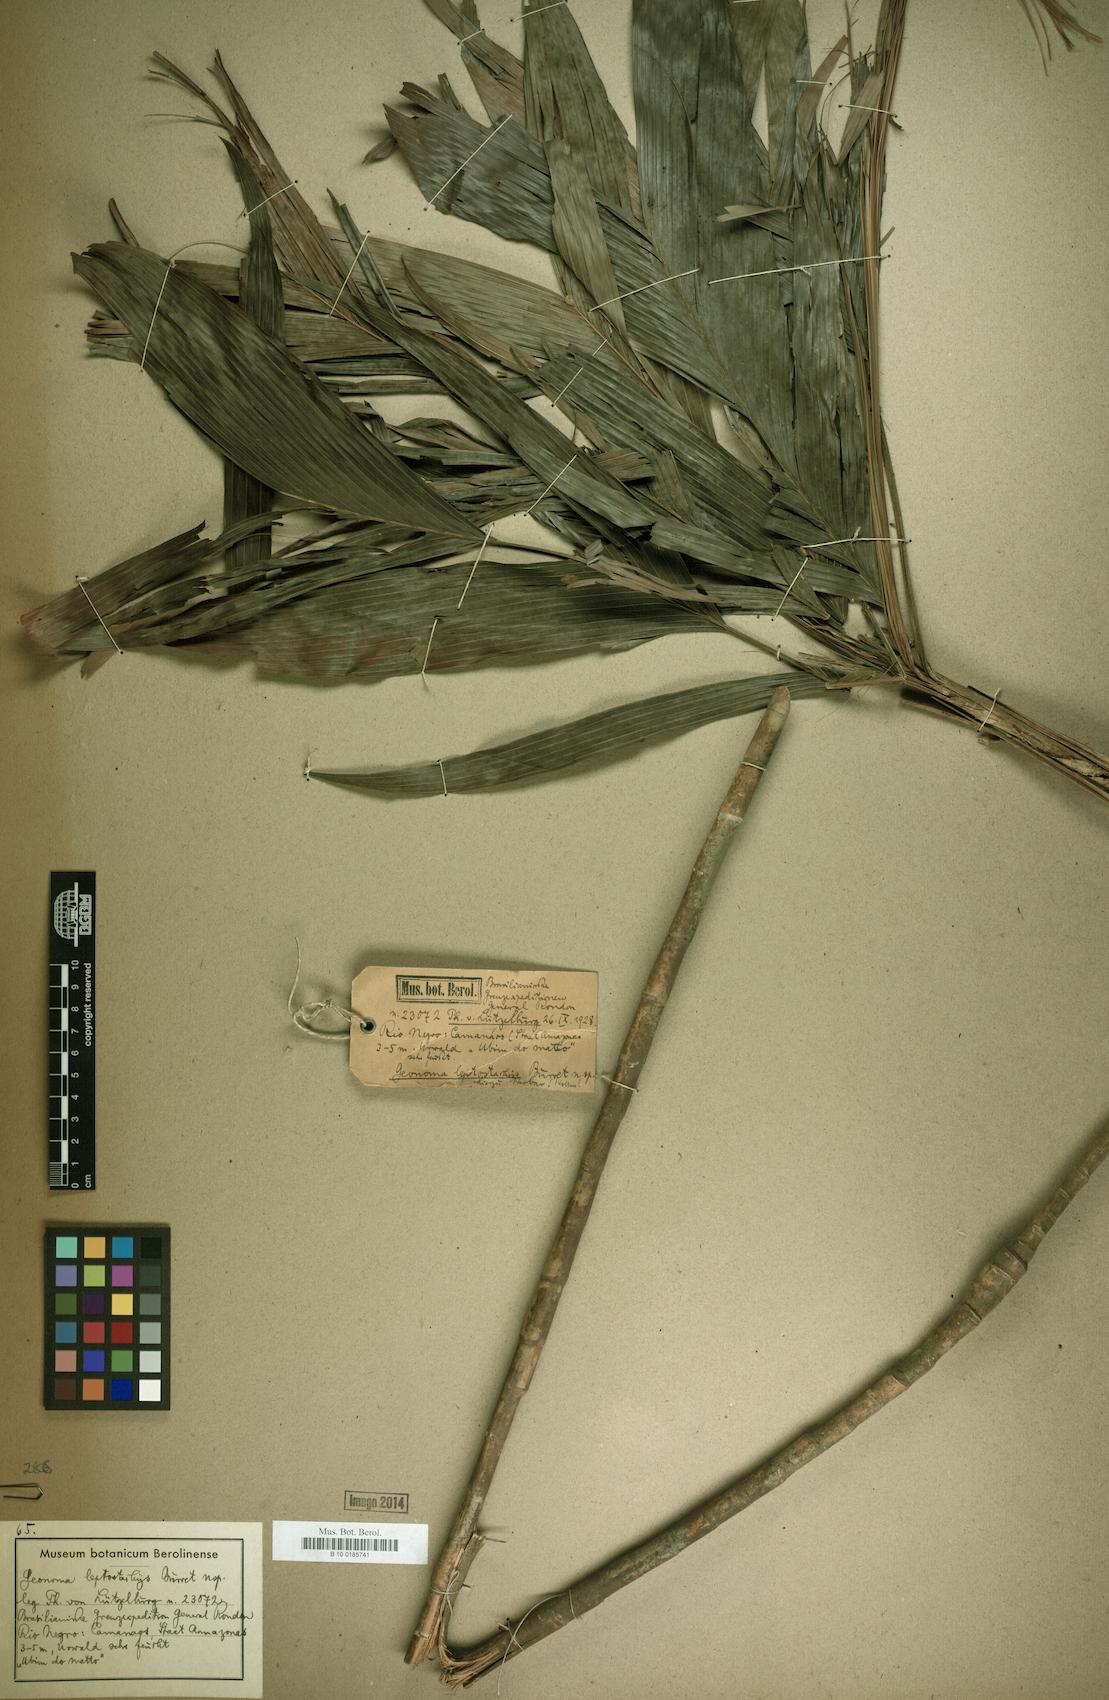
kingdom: Plantae
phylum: Tracheophyta
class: Liliopsida
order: Arecales
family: Arecaceae
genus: Geonoma
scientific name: Geonoma deversa
